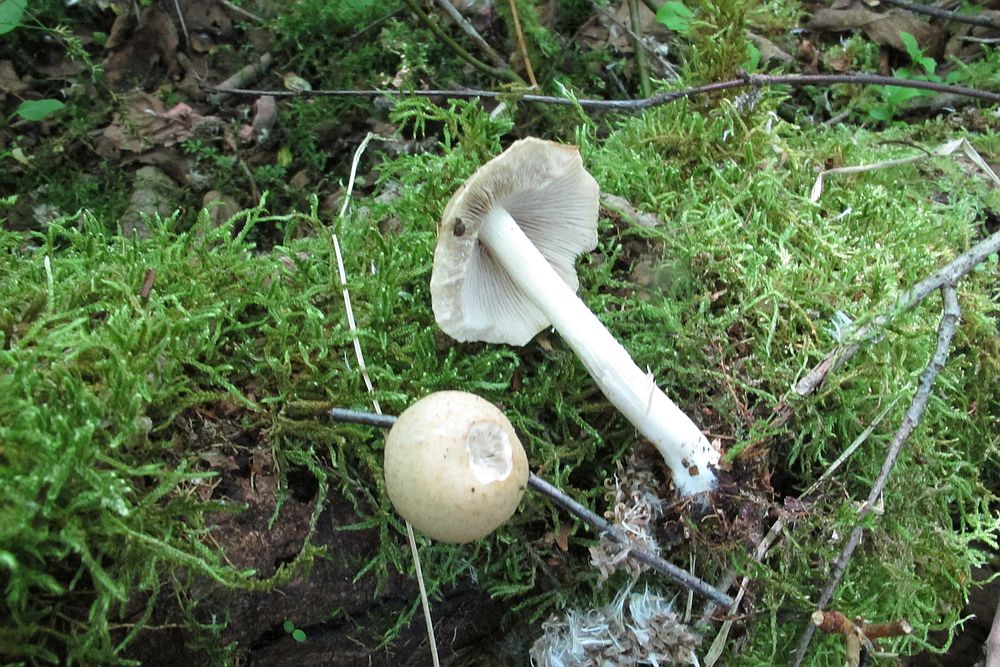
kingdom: Fungi
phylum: Basidiomycota
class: Agaricomycetes
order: Agaricales
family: Psathyrellaceae
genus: Candolleomyces
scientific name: Candolleomyces candolleanus
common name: Candolles mørkhat
